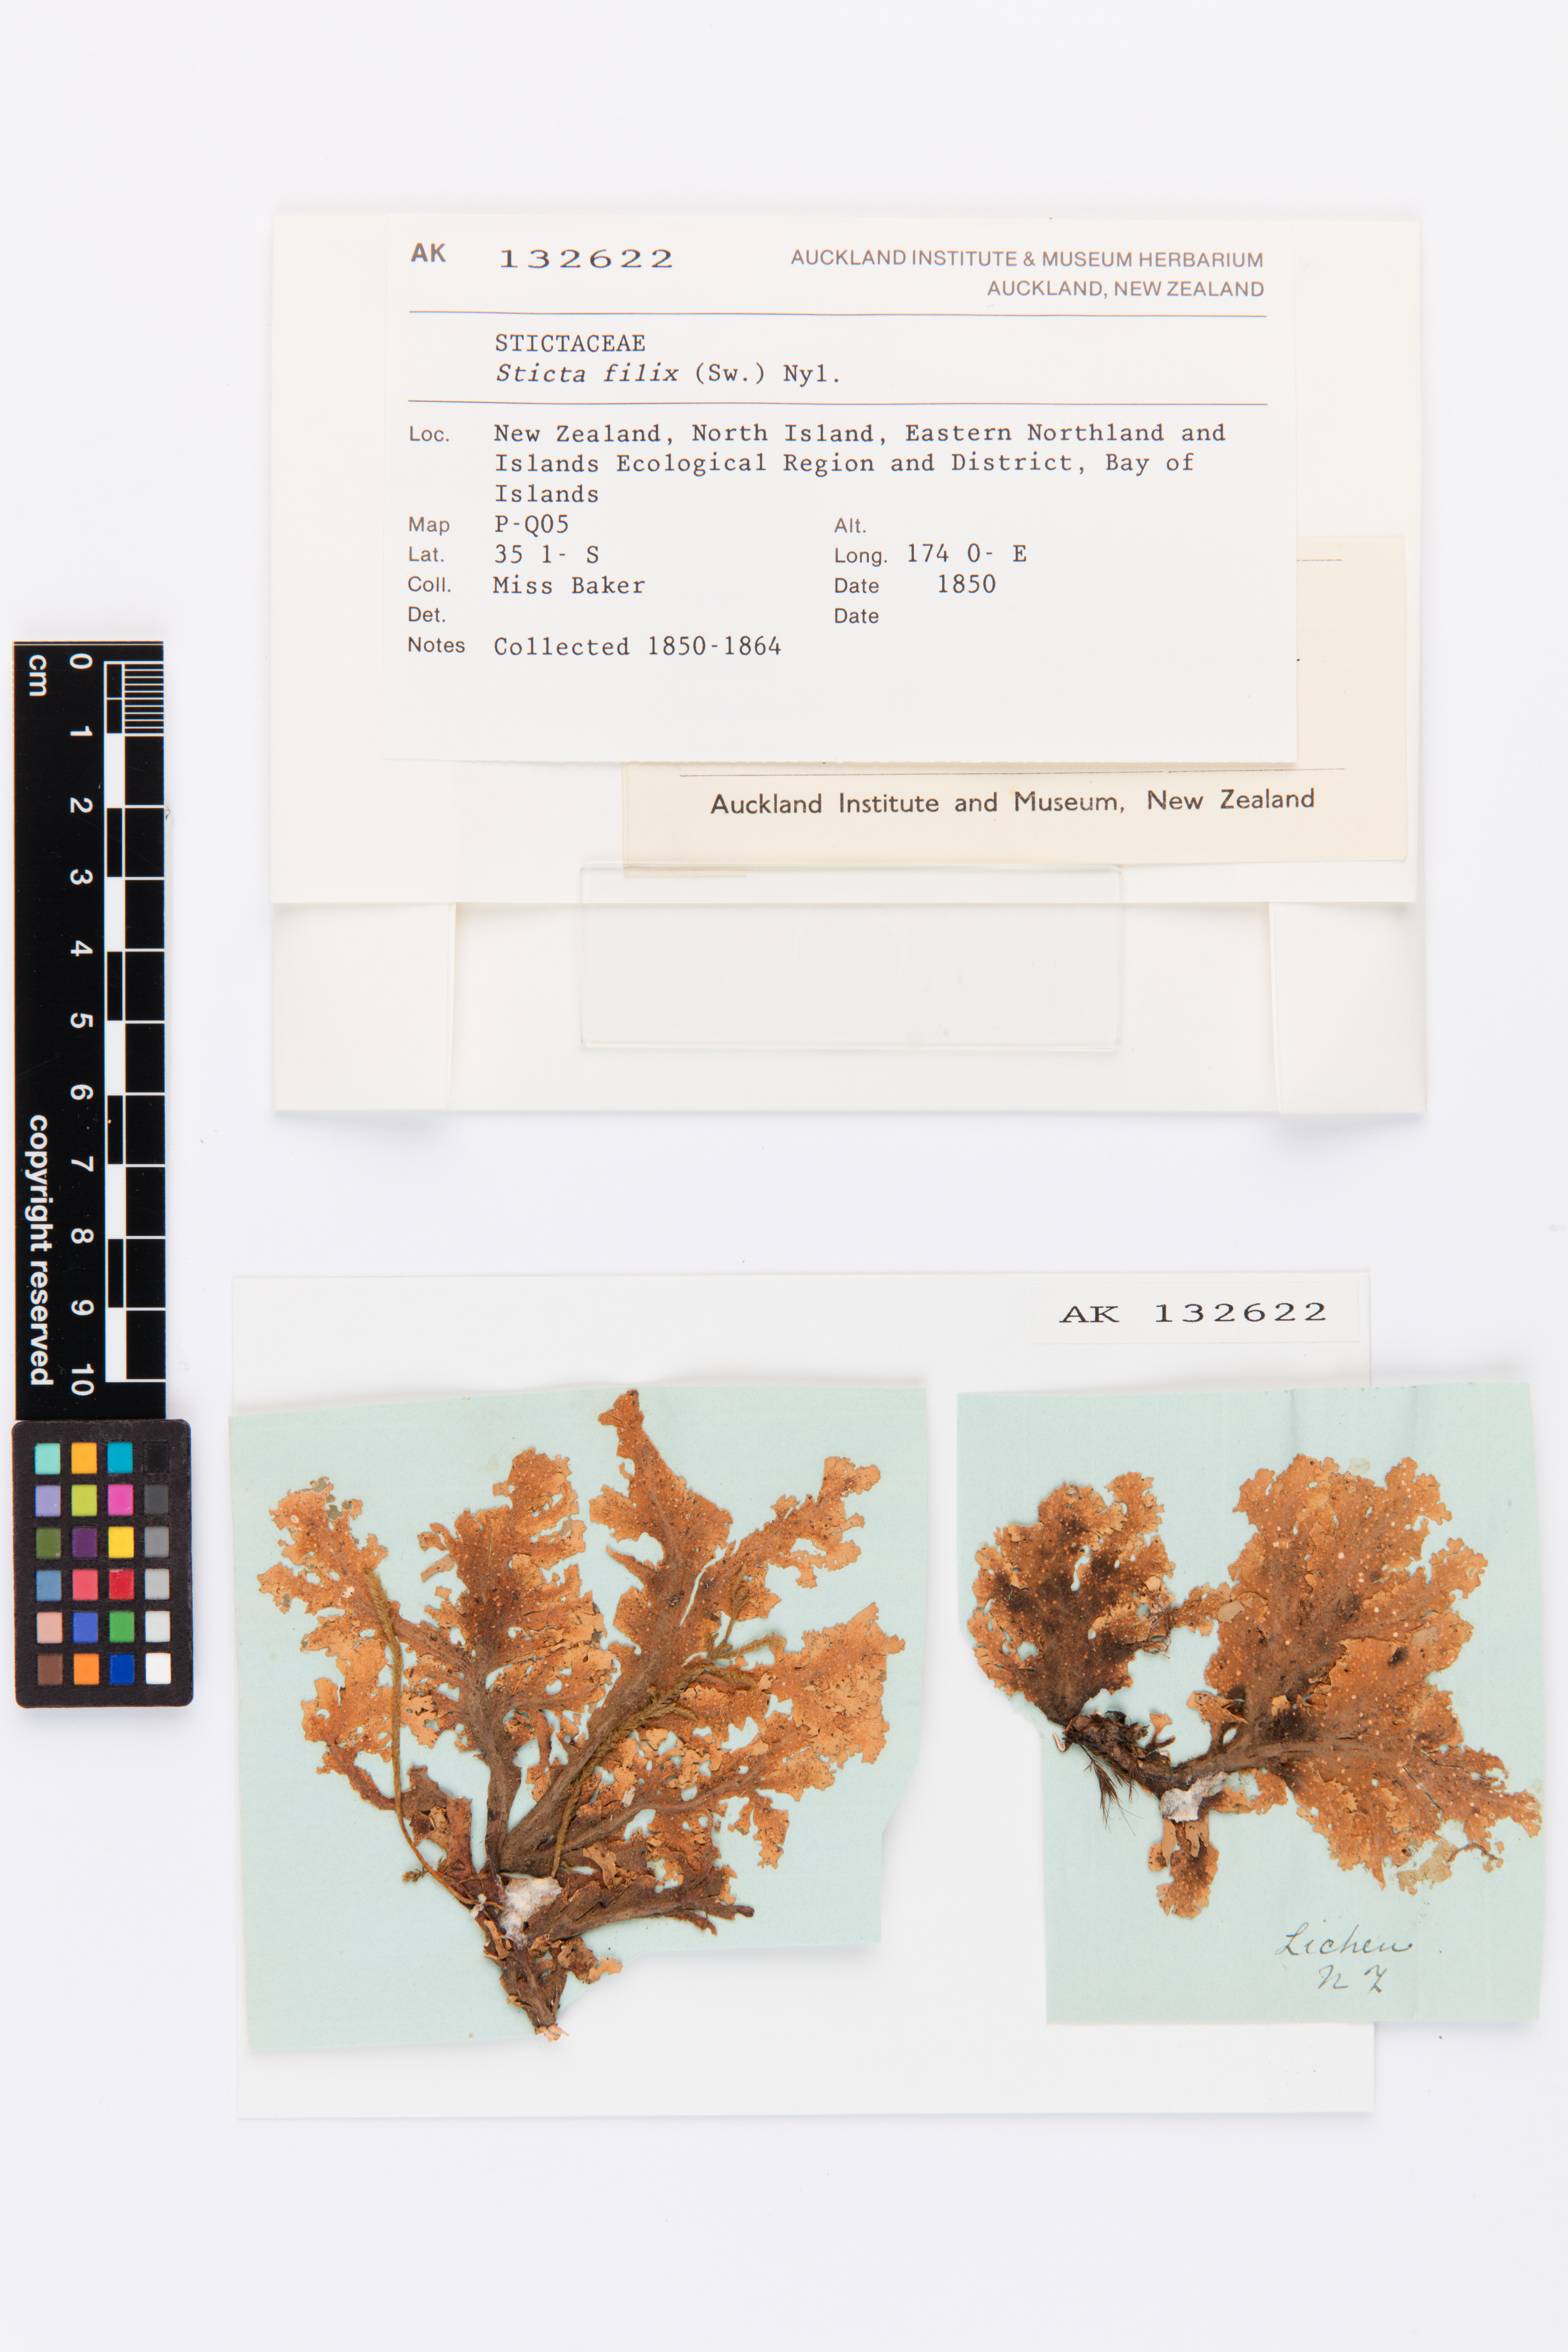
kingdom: Fungi
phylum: Ascomycota
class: Lecanoromycetes
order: Peltigerales
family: Lobariaceae
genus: Sticta
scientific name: Sticta filix
